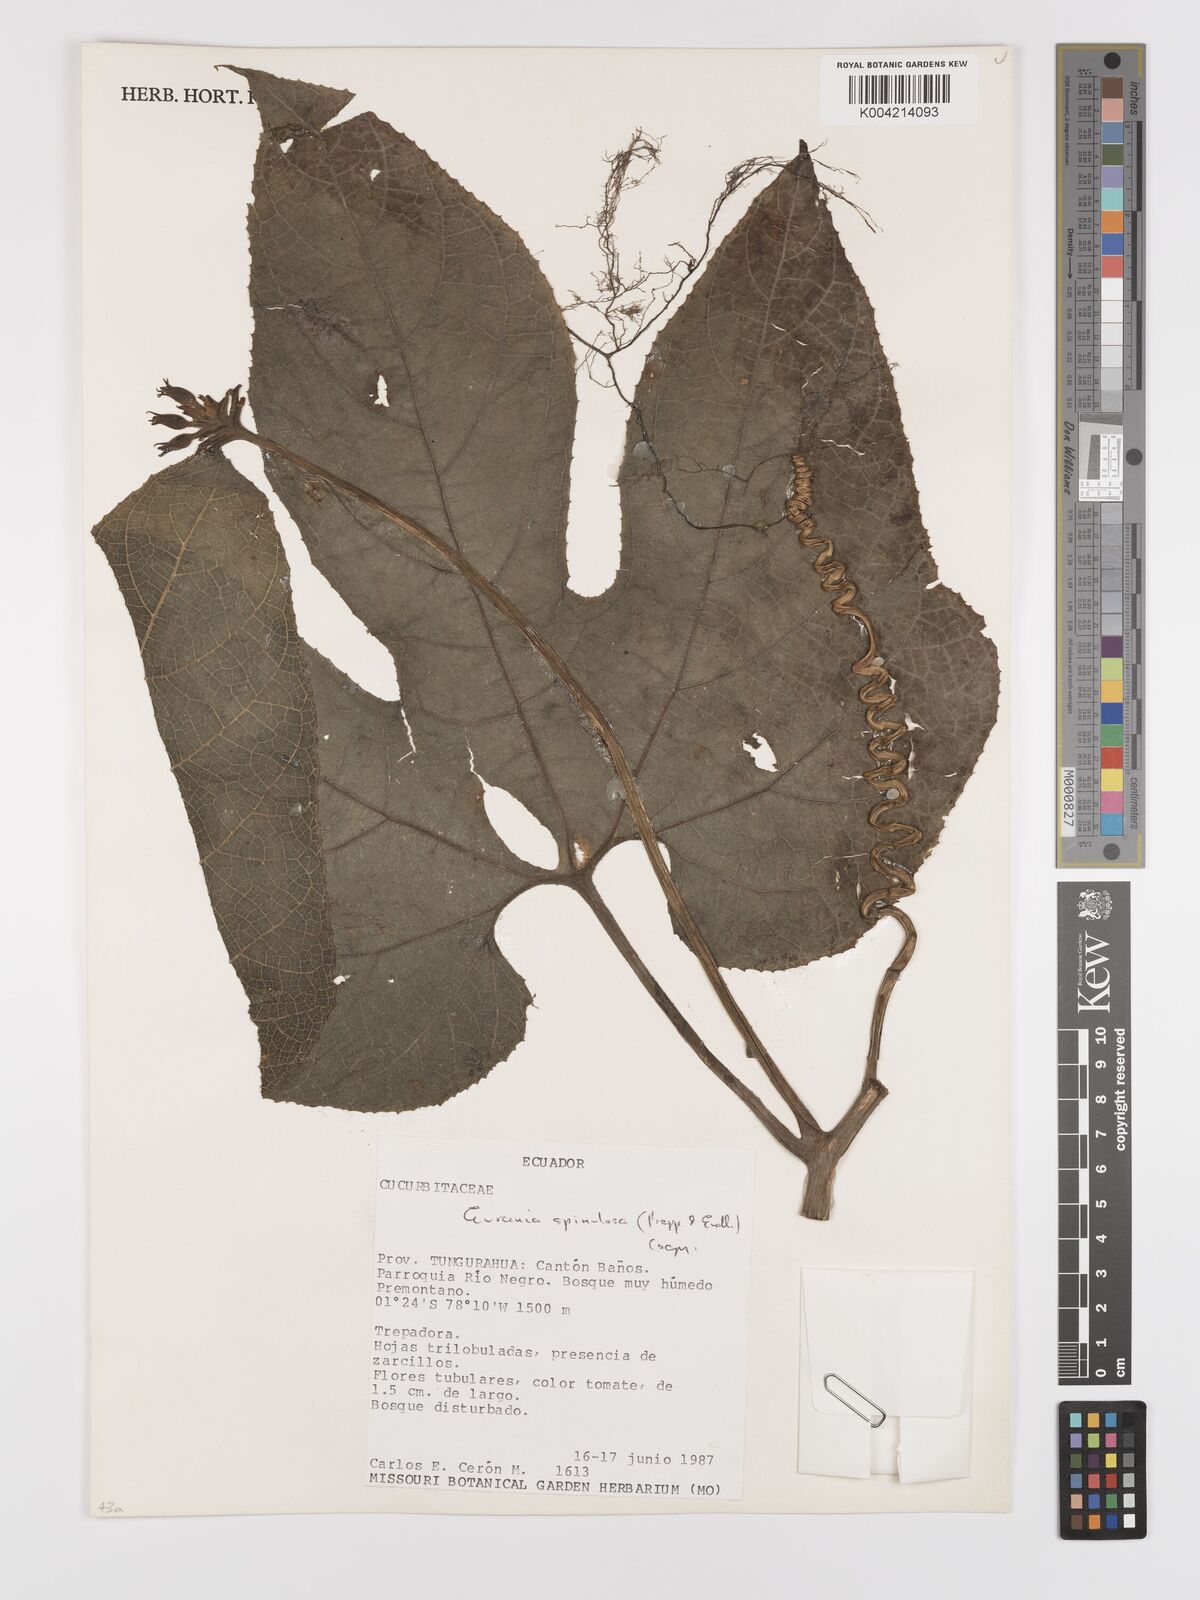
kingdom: Plantae
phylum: Tracheophyta
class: Magnoliopsida
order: Cucurbitales
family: Cucurbitaceae
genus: Gurania
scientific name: Gurania lobata
